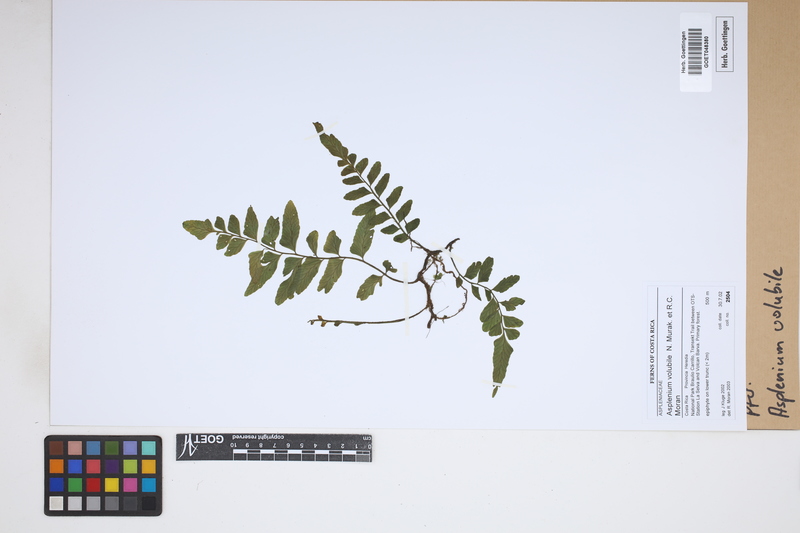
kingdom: Plantae
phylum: Tracheophyta
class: Polypodiopsida
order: Polypodiales
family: Aspleniaceae
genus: Hymenasplenium
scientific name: Hymenasplenium volubile
